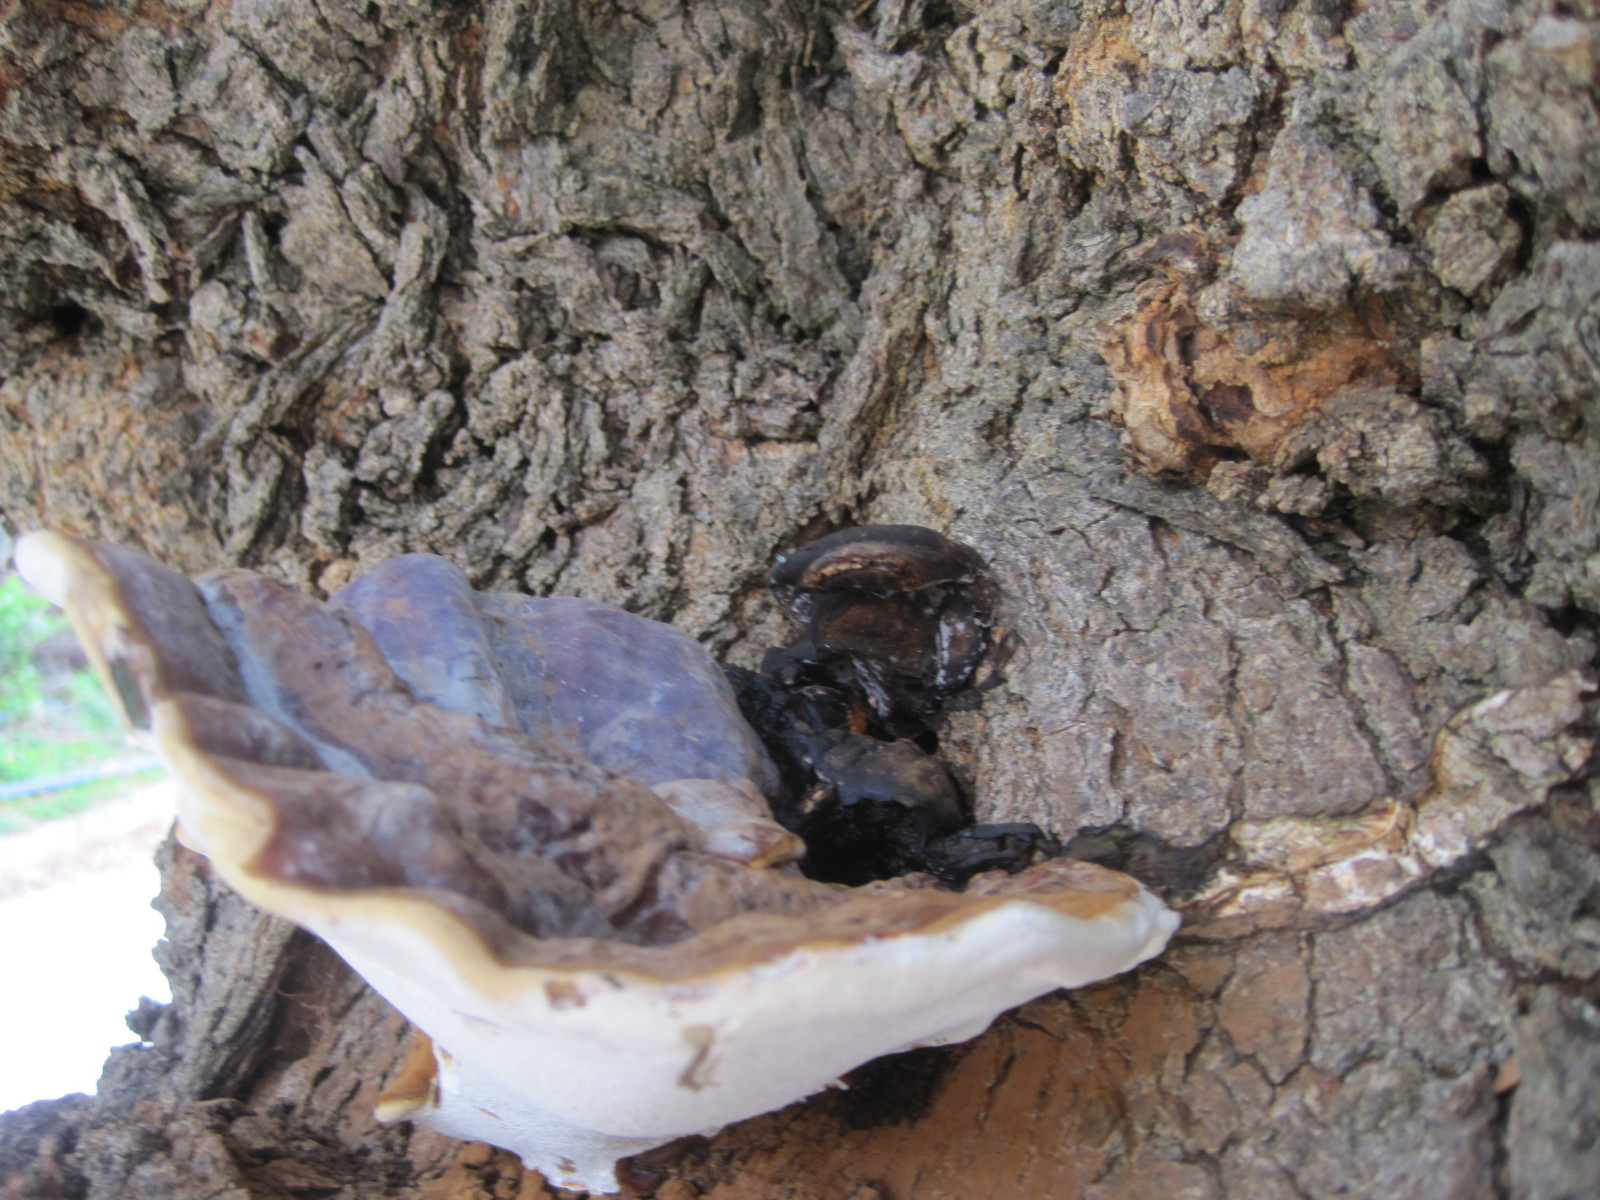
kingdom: Fungi
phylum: Basidiomycota
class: Agaricomycetes
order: Polyporales
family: Polyporaceae
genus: Ganoderma
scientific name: Ganoderma applanatum
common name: flad lakporesvamp
